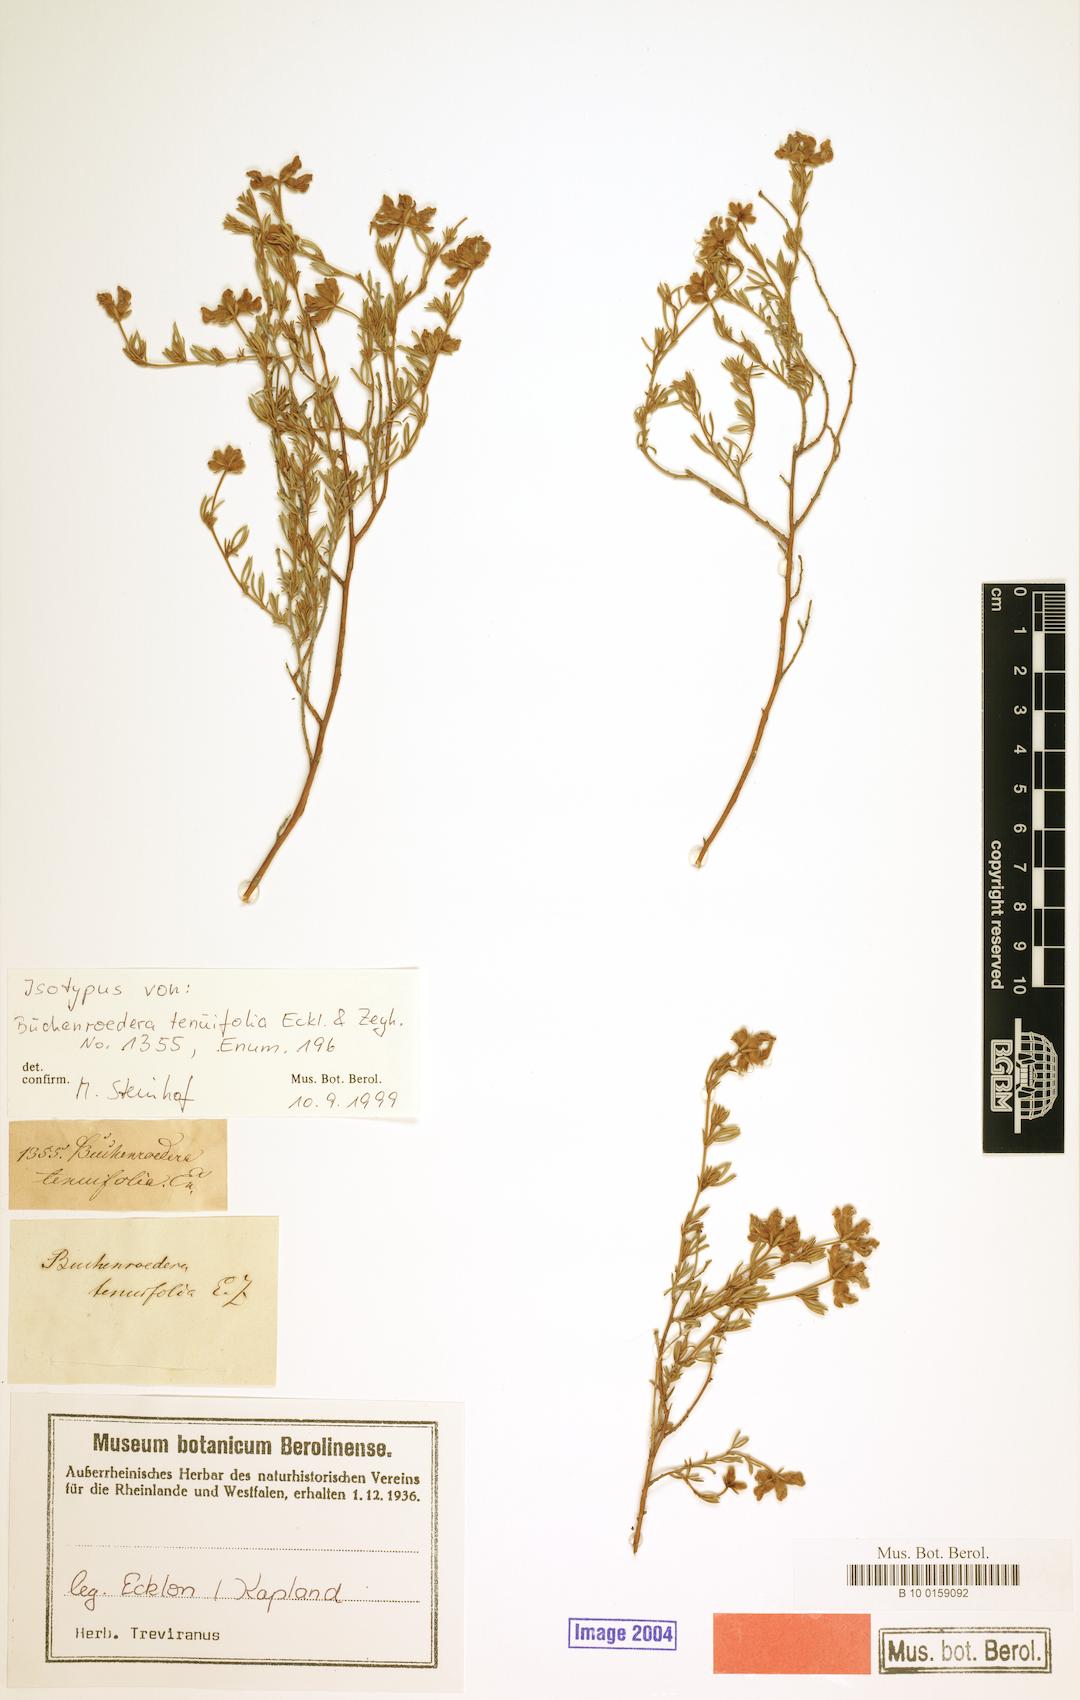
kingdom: Plantae
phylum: Tracheophyta
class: Magnoliopsida
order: Fabales
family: Fabaceae
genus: Lotononis
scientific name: Lotononis pulchella
